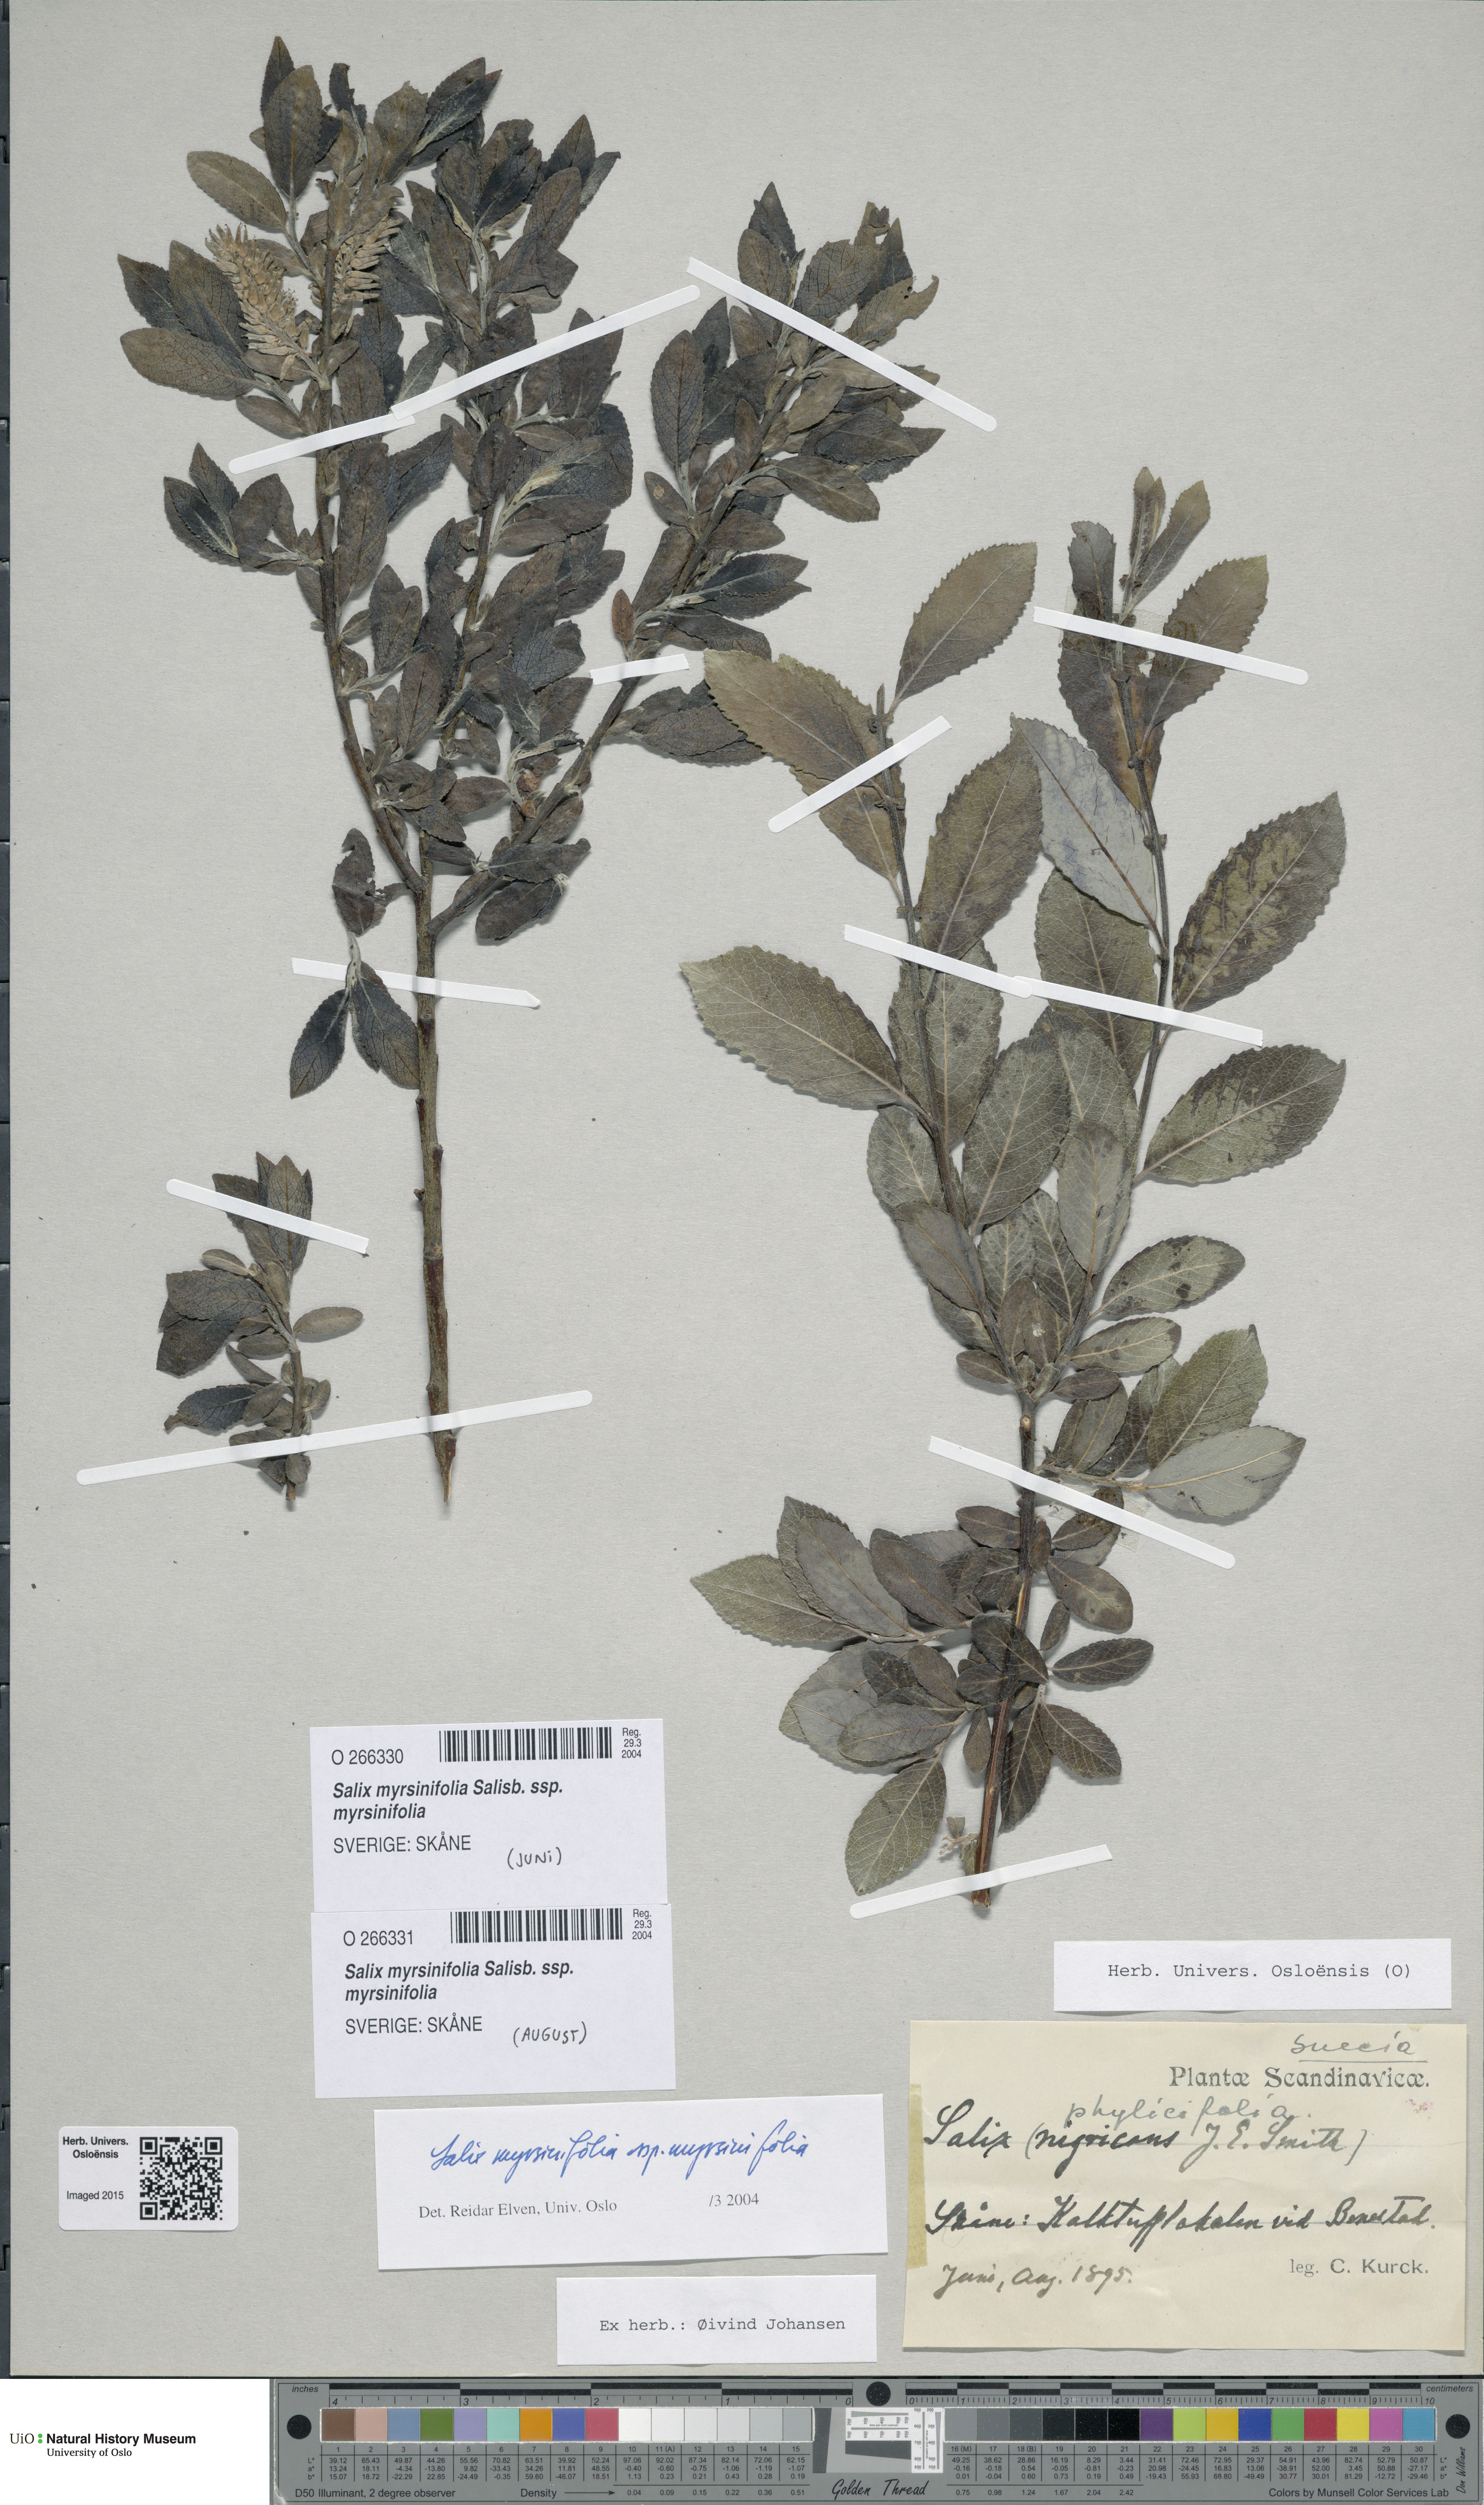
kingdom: Plantae
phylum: Tracheophyta
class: Magnoliopsida
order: Malpighiales
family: Salicaceae
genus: Salix
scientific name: Salix myrsinifolia
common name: Dark-leaved willow
